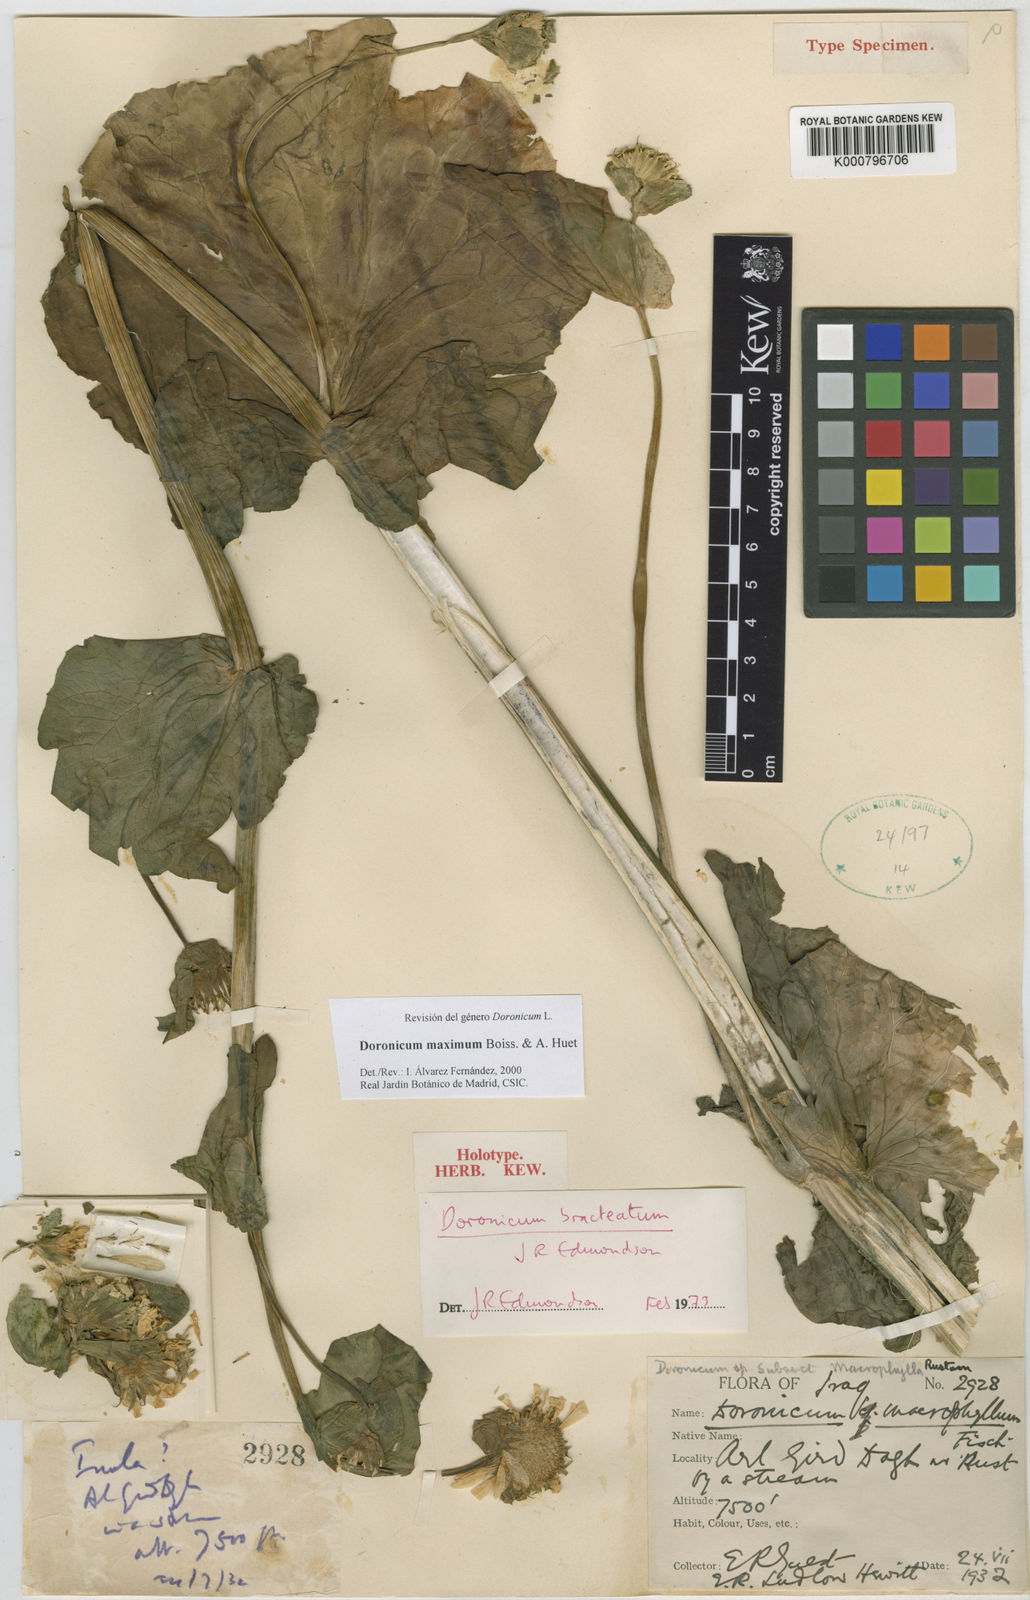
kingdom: Plantae
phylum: Tracheophyta
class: Magnoliopsida
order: Asterales
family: Asteraceae
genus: Doronicum
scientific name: Doronicum maximum
